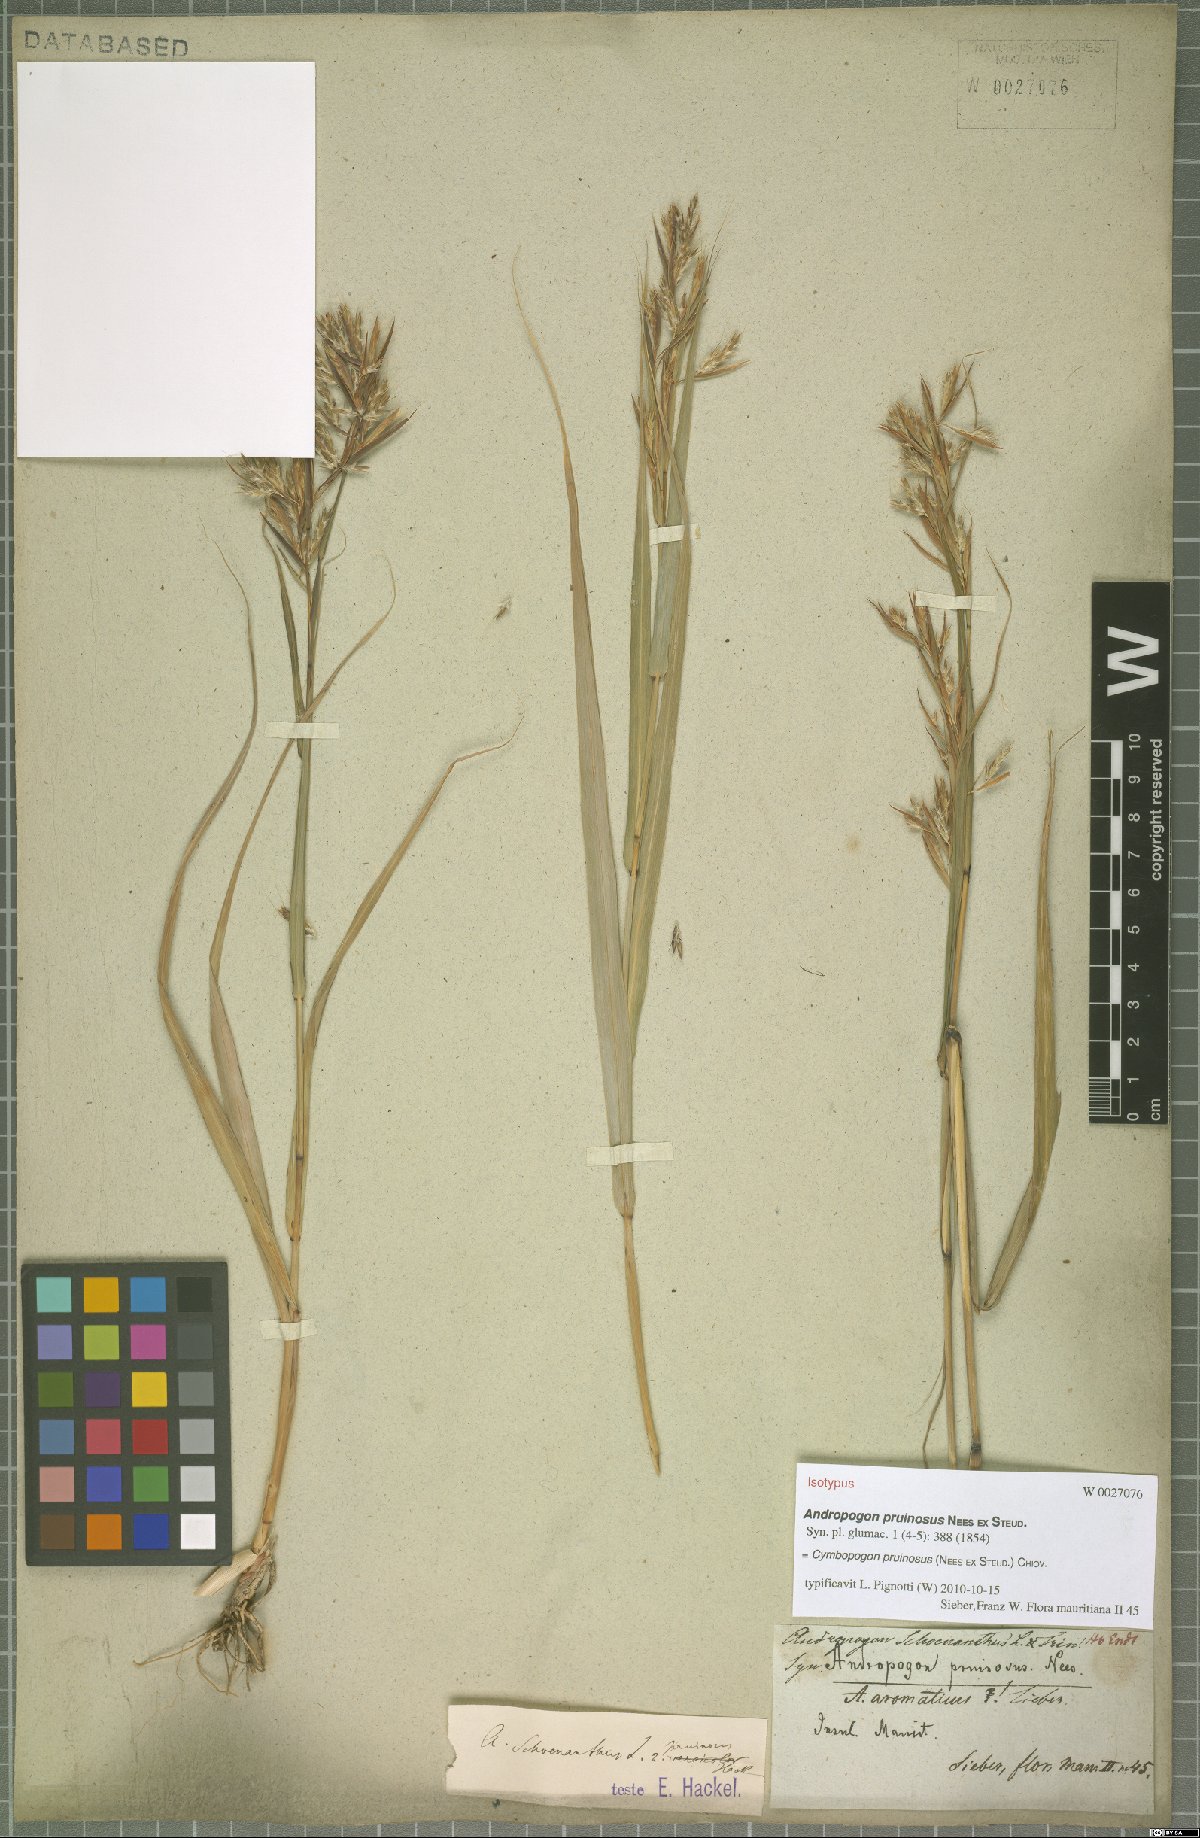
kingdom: Plantae
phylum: Tracheophyta
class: Liliopsida
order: Poales
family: Poaceae
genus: Cymbopogon
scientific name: Cymbopogon pruinosus
